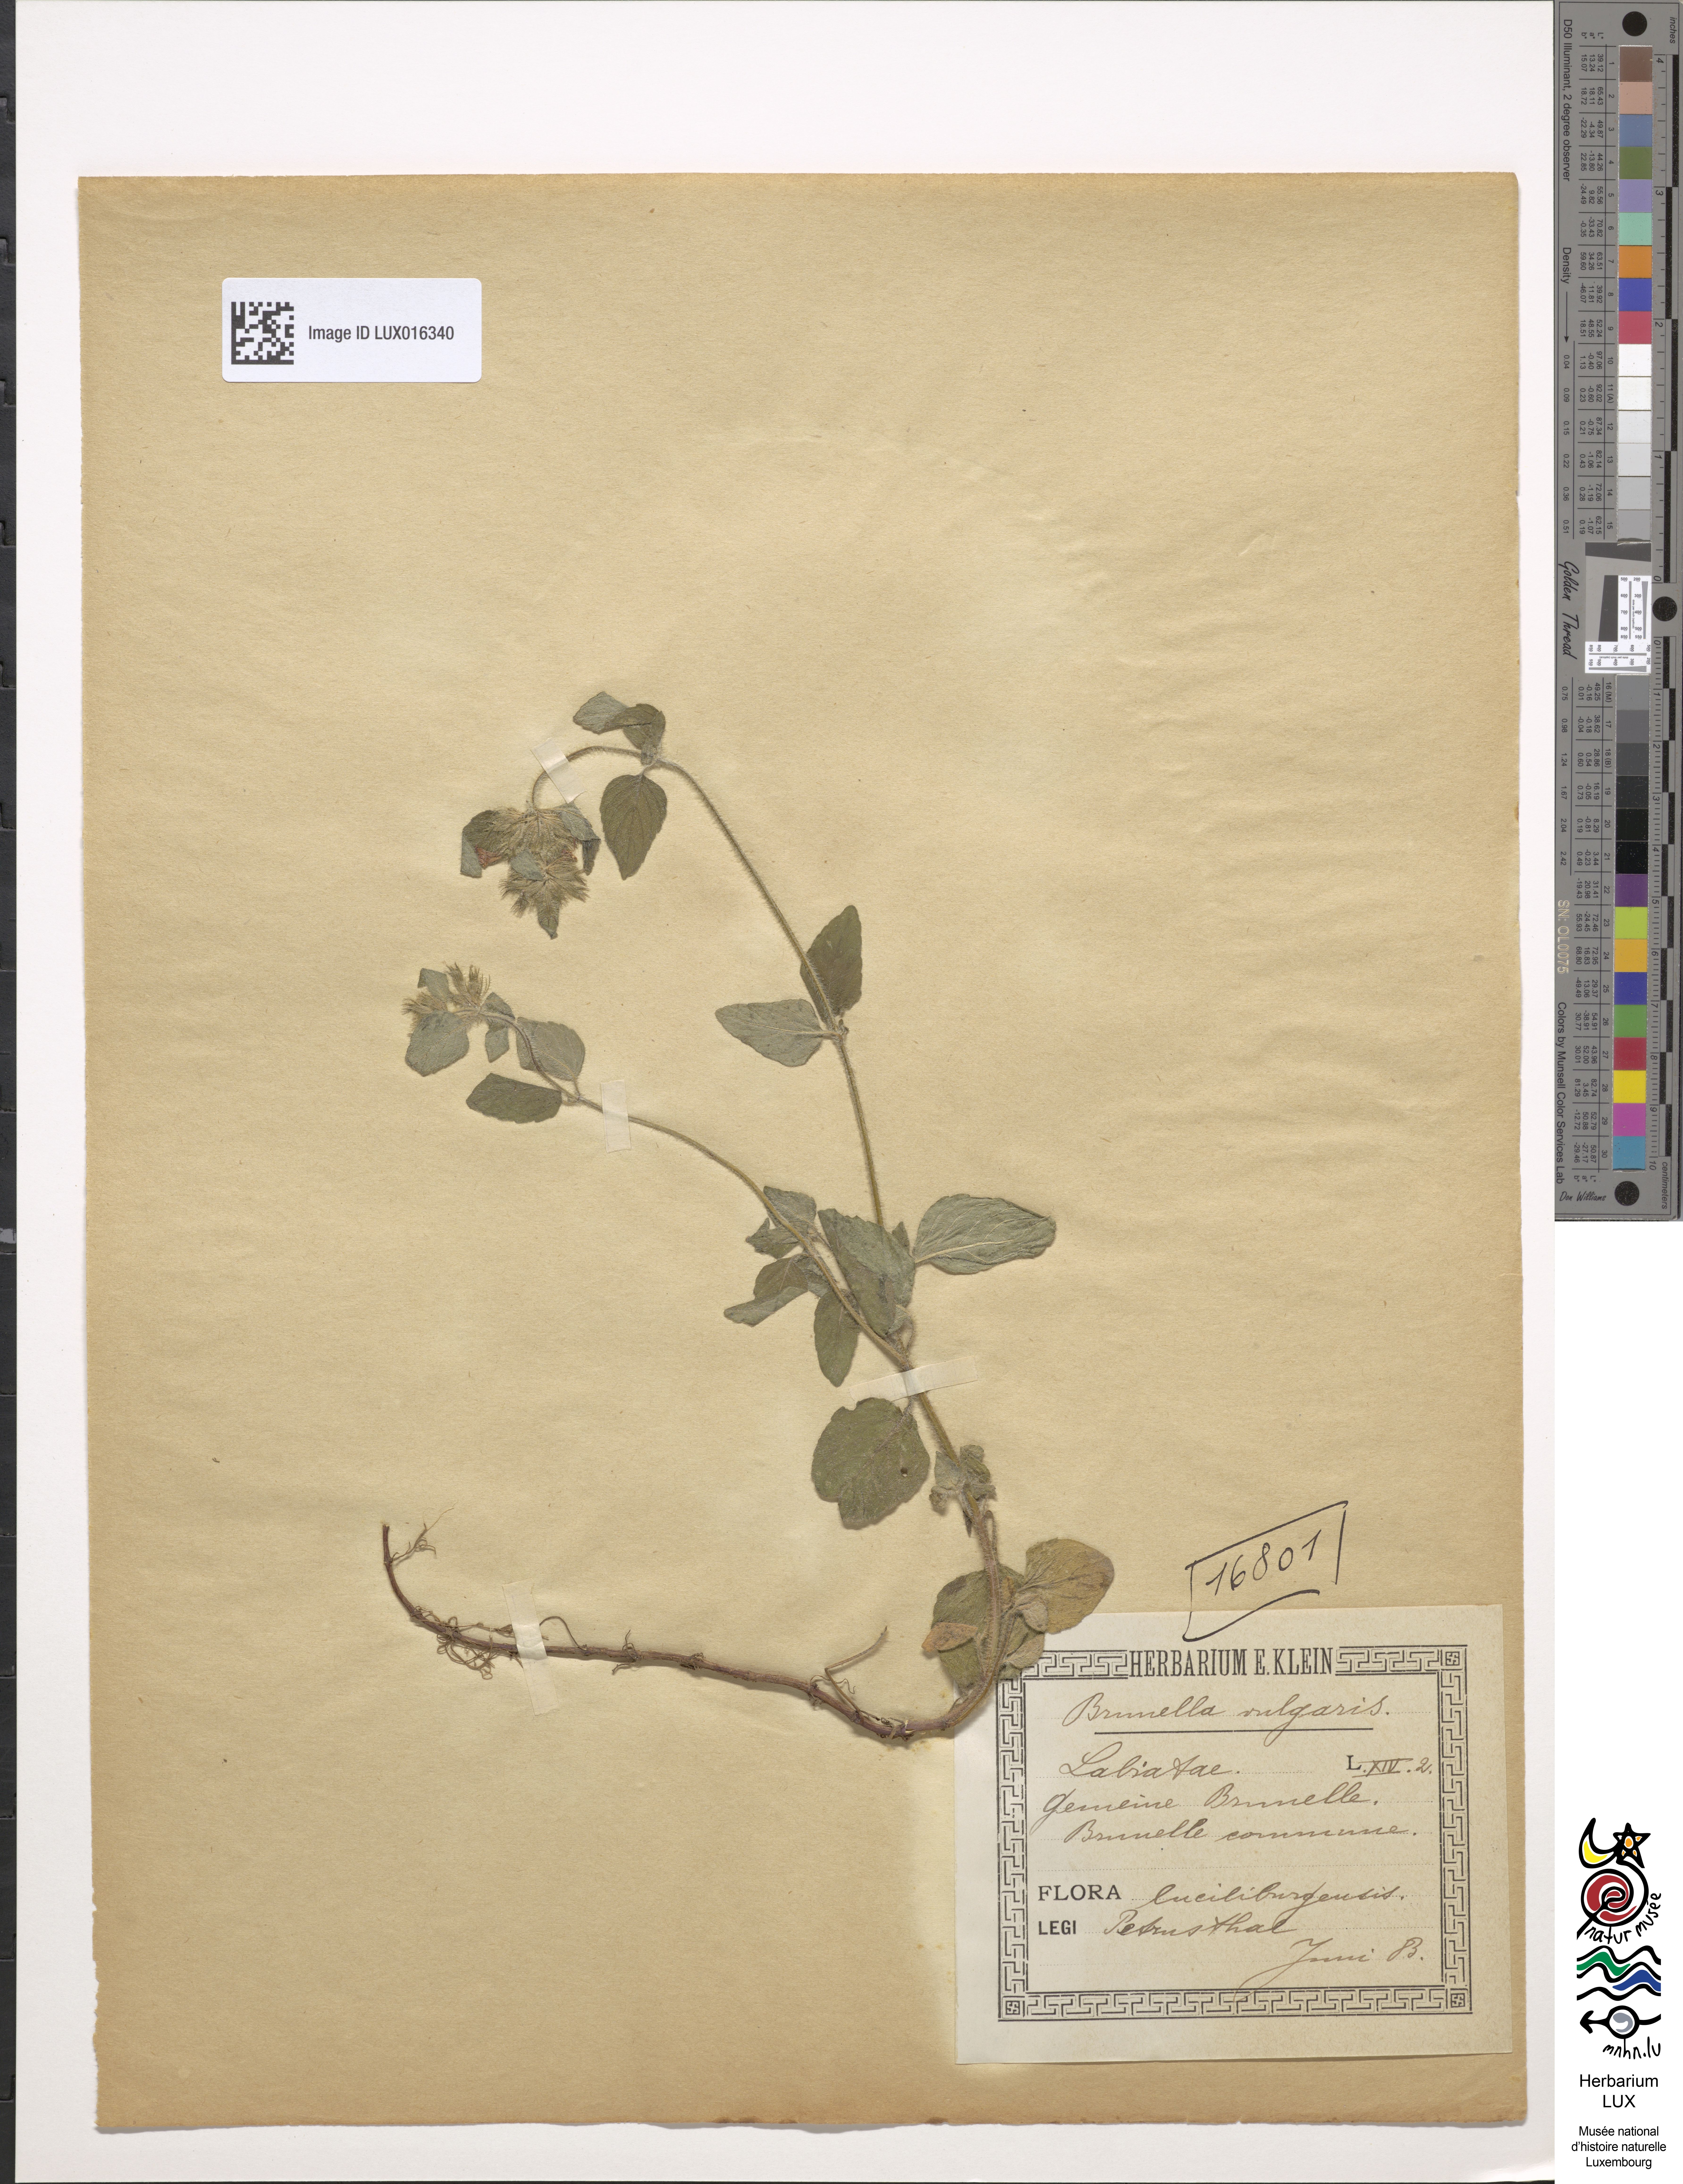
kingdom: Plantae
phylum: Tracheophyta
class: Magnoliopsida
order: Lamiales
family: Lamiaceae
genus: Prunella
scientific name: Prunella vulgaris
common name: Heal-all
